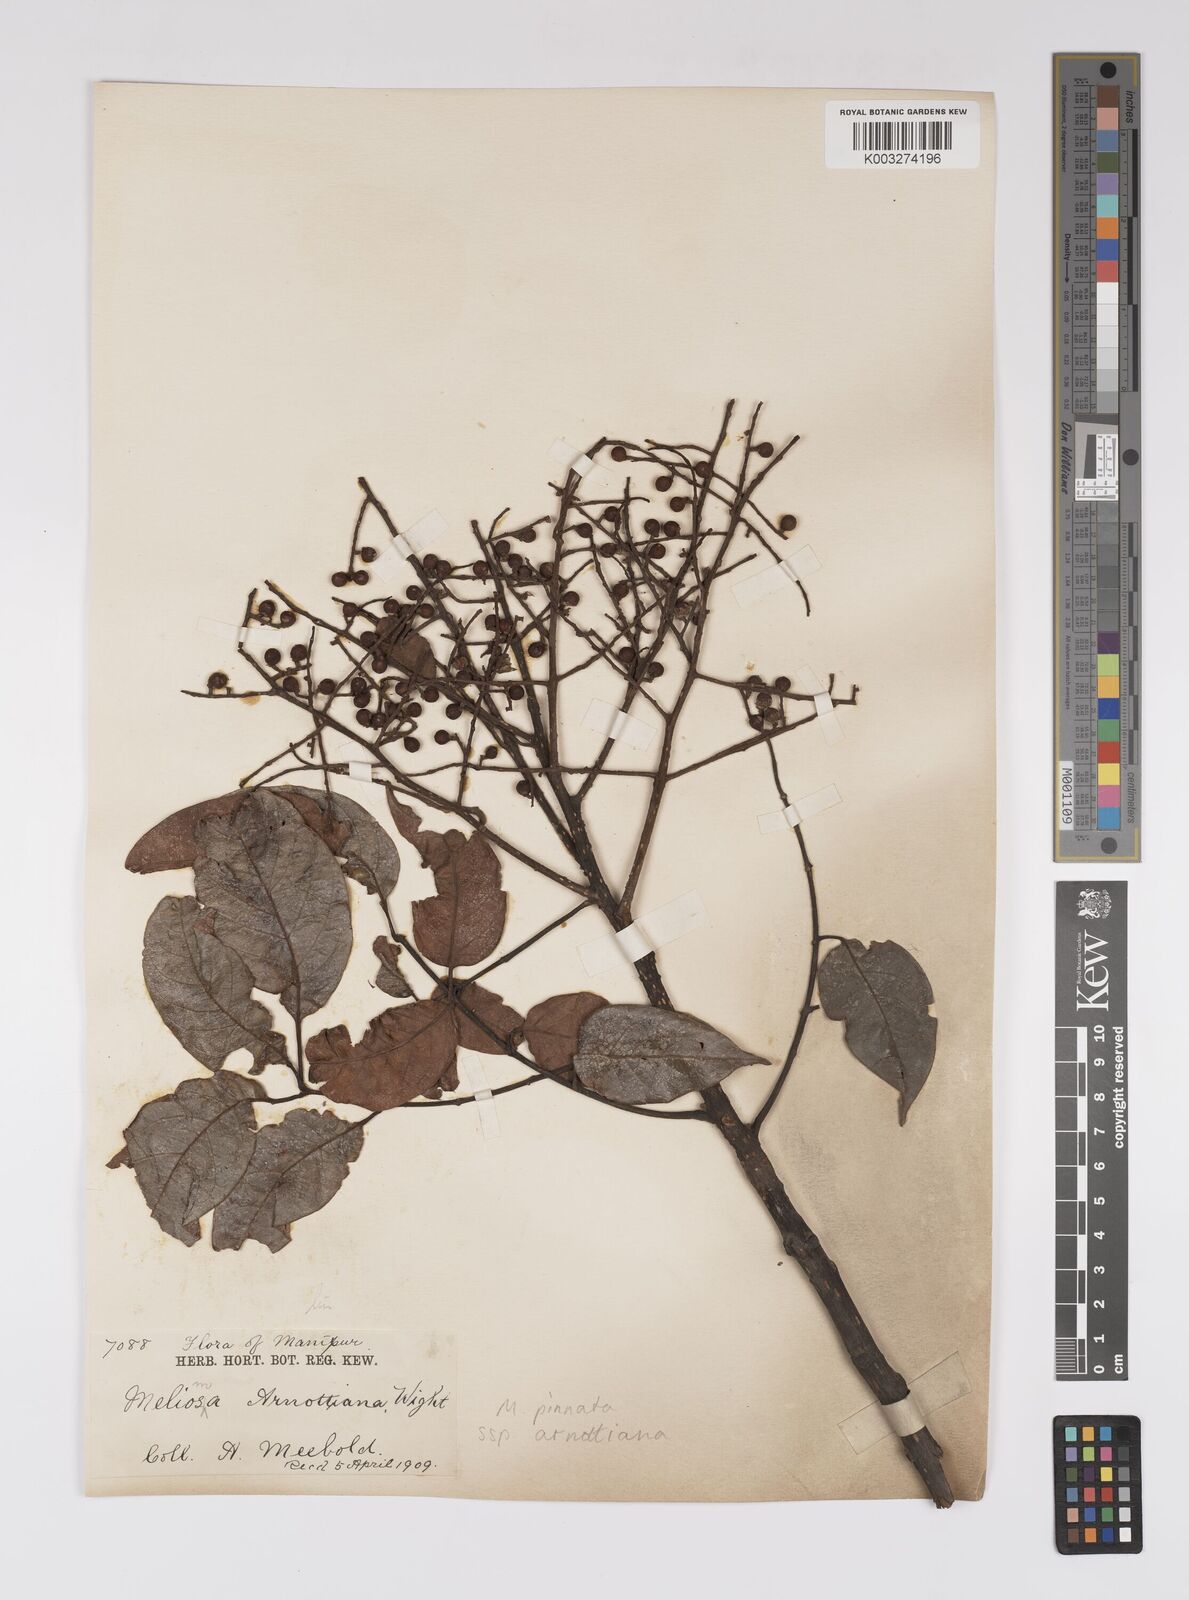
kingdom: Plantae
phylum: Tracheophyta
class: Magnoliopsida
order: Proteales
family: Sabiaceae
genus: Meliosma
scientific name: Meliosma rhoifolia
